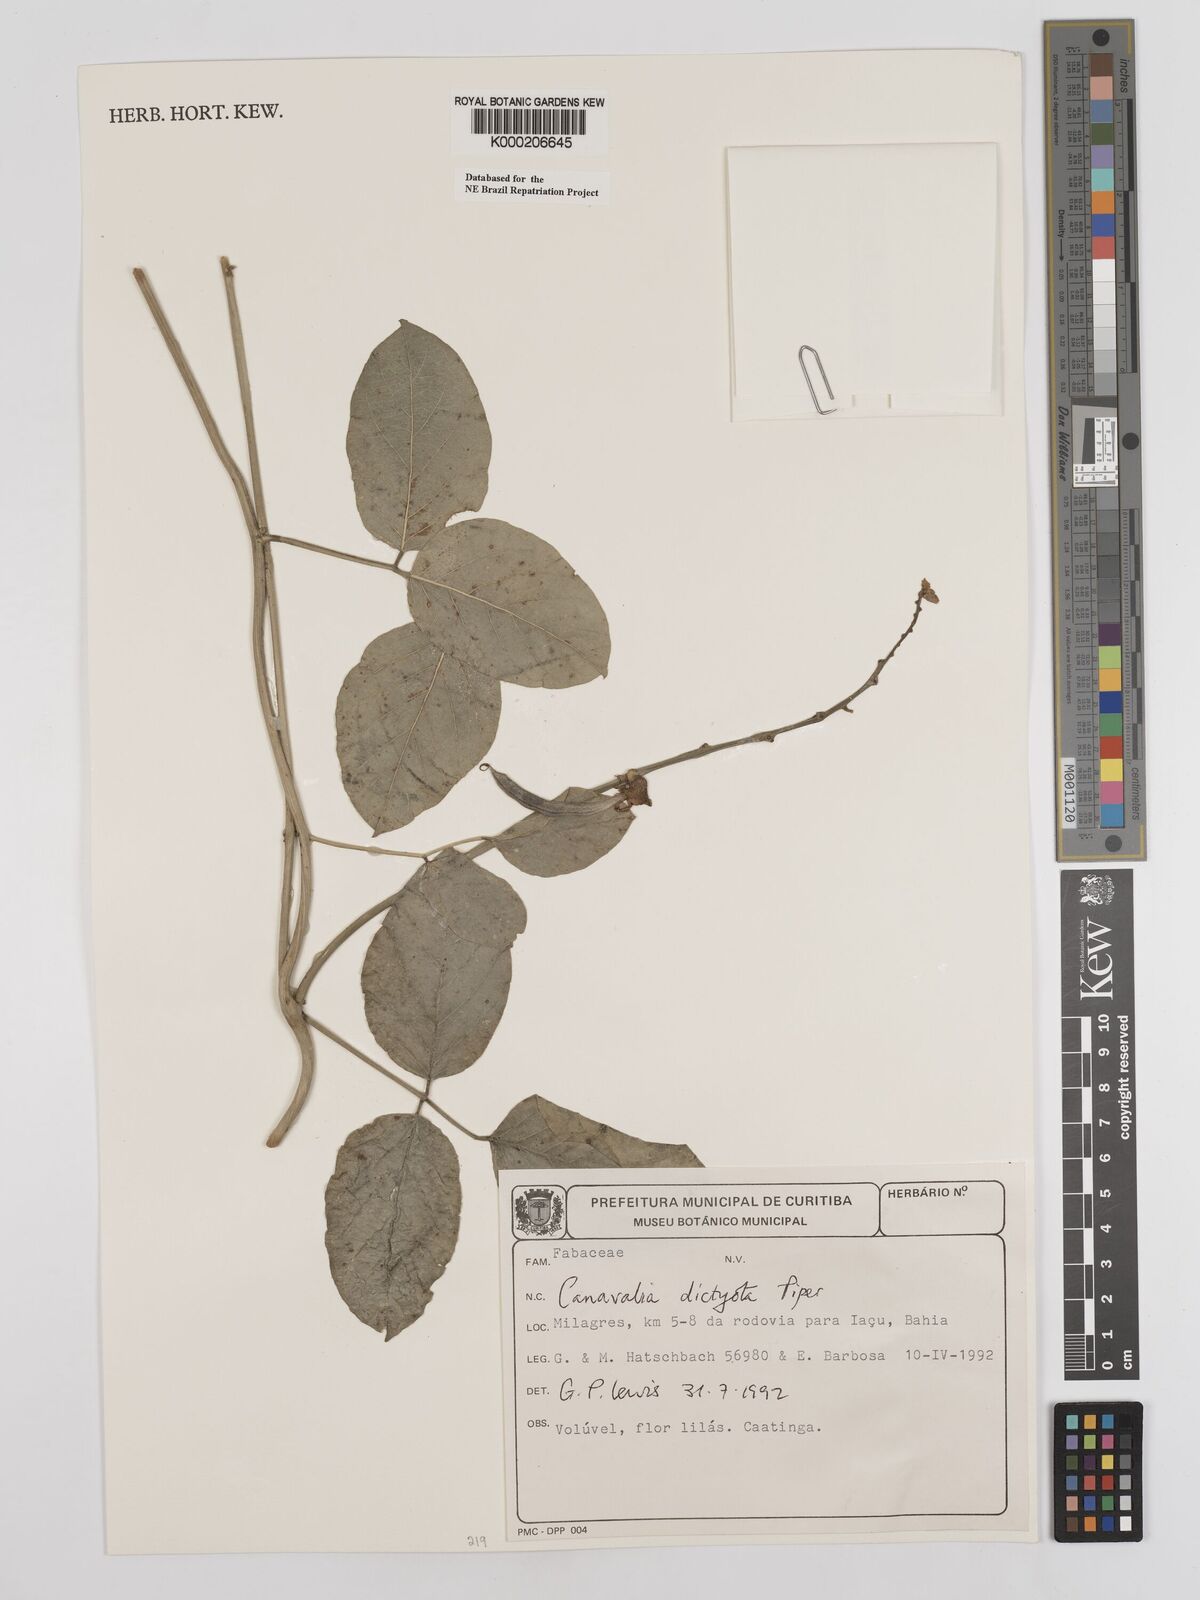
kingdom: Plantae
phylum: Tracheophyta
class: Magnoliopsida
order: Fabales
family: Fabaceae
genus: Canavalia
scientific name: Canavalia brasiliensis
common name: Barbicou-bean
